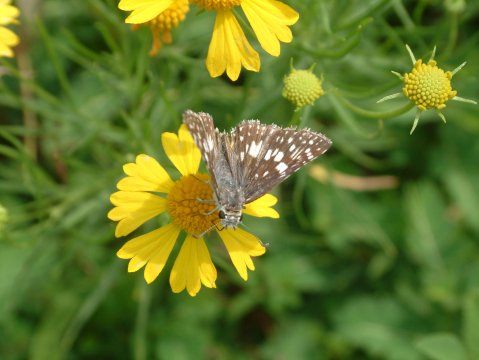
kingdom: Animalia
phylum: Arthropoda
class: Insecta
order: Lepidoptera
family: Hesperiidae
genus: Pyrgus
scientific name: Pyrgus communis
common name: Common Checkered-Skipper
